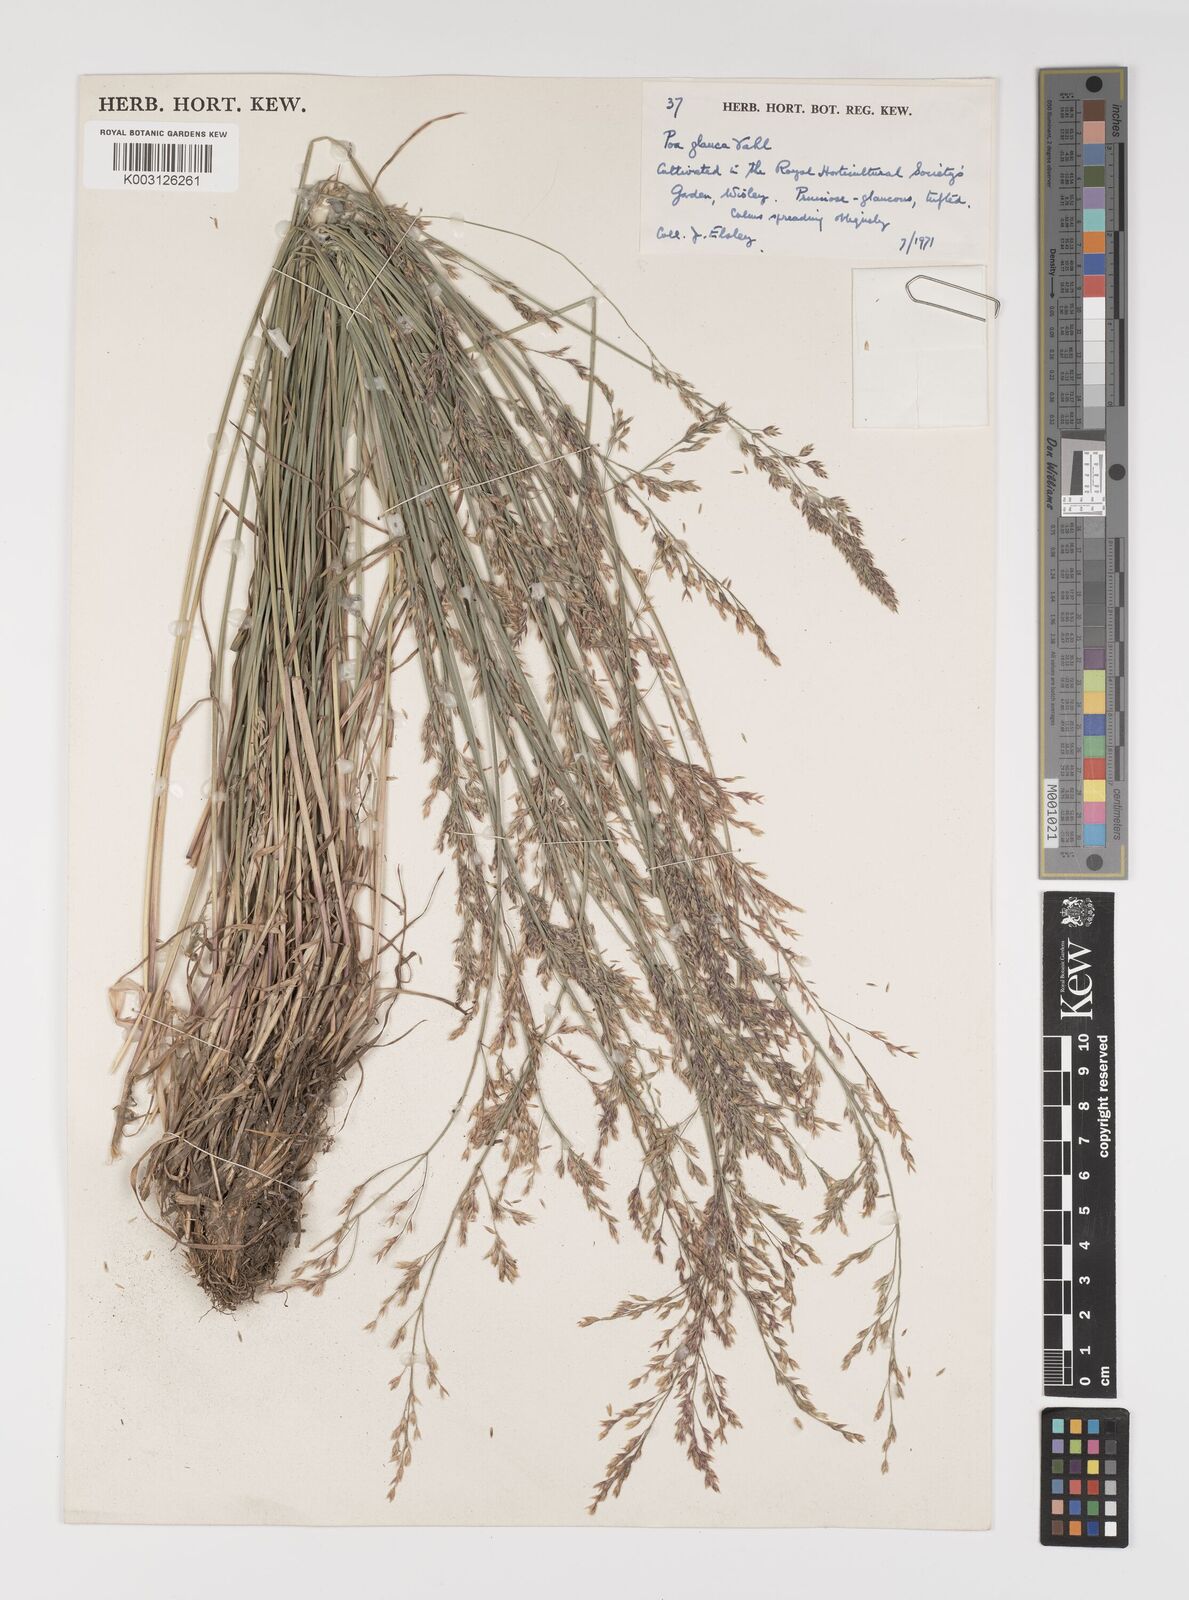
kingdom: Plantae
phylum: Tracheophyta
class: Liliopsida
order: Poales
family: Poaceae
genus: Poa
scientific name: Poa glauca
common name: Glaucous bluegrass
